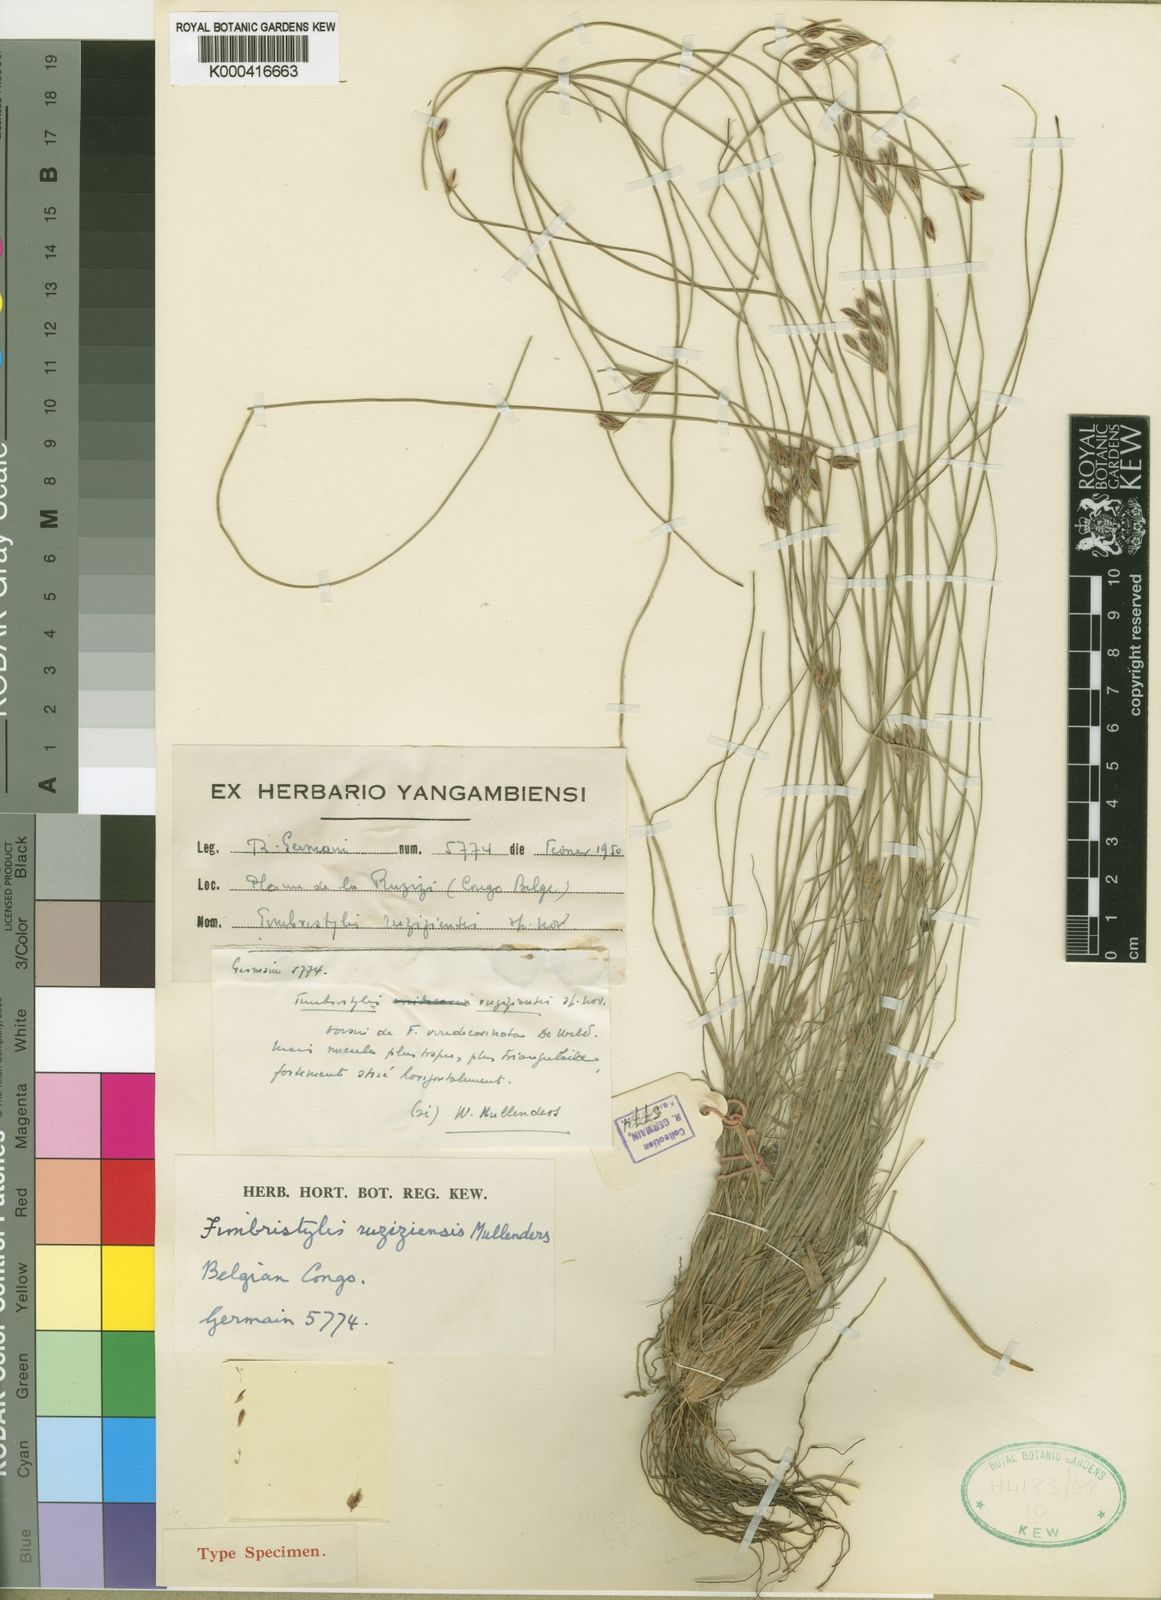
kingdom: Plantae
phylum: Tracheophyta
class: Liliopsida
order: Poales
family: Cyperaceae
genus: Fimbristylis
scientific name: Fimbristylis
